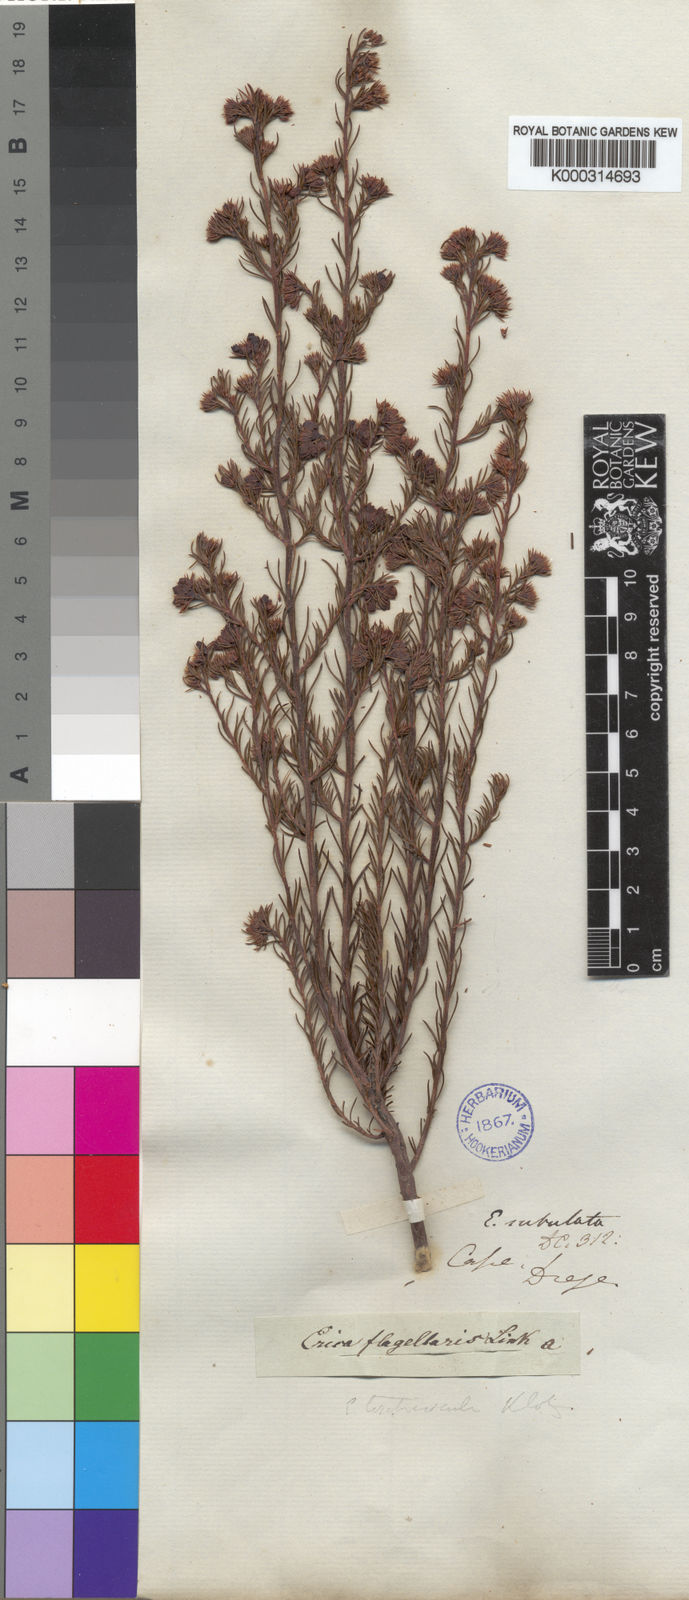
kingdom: Plantae
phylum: Tracheophyta
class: Magnoliopsida
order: Ericales
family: Ericaceae
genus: Erica
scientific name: Erica subulata
